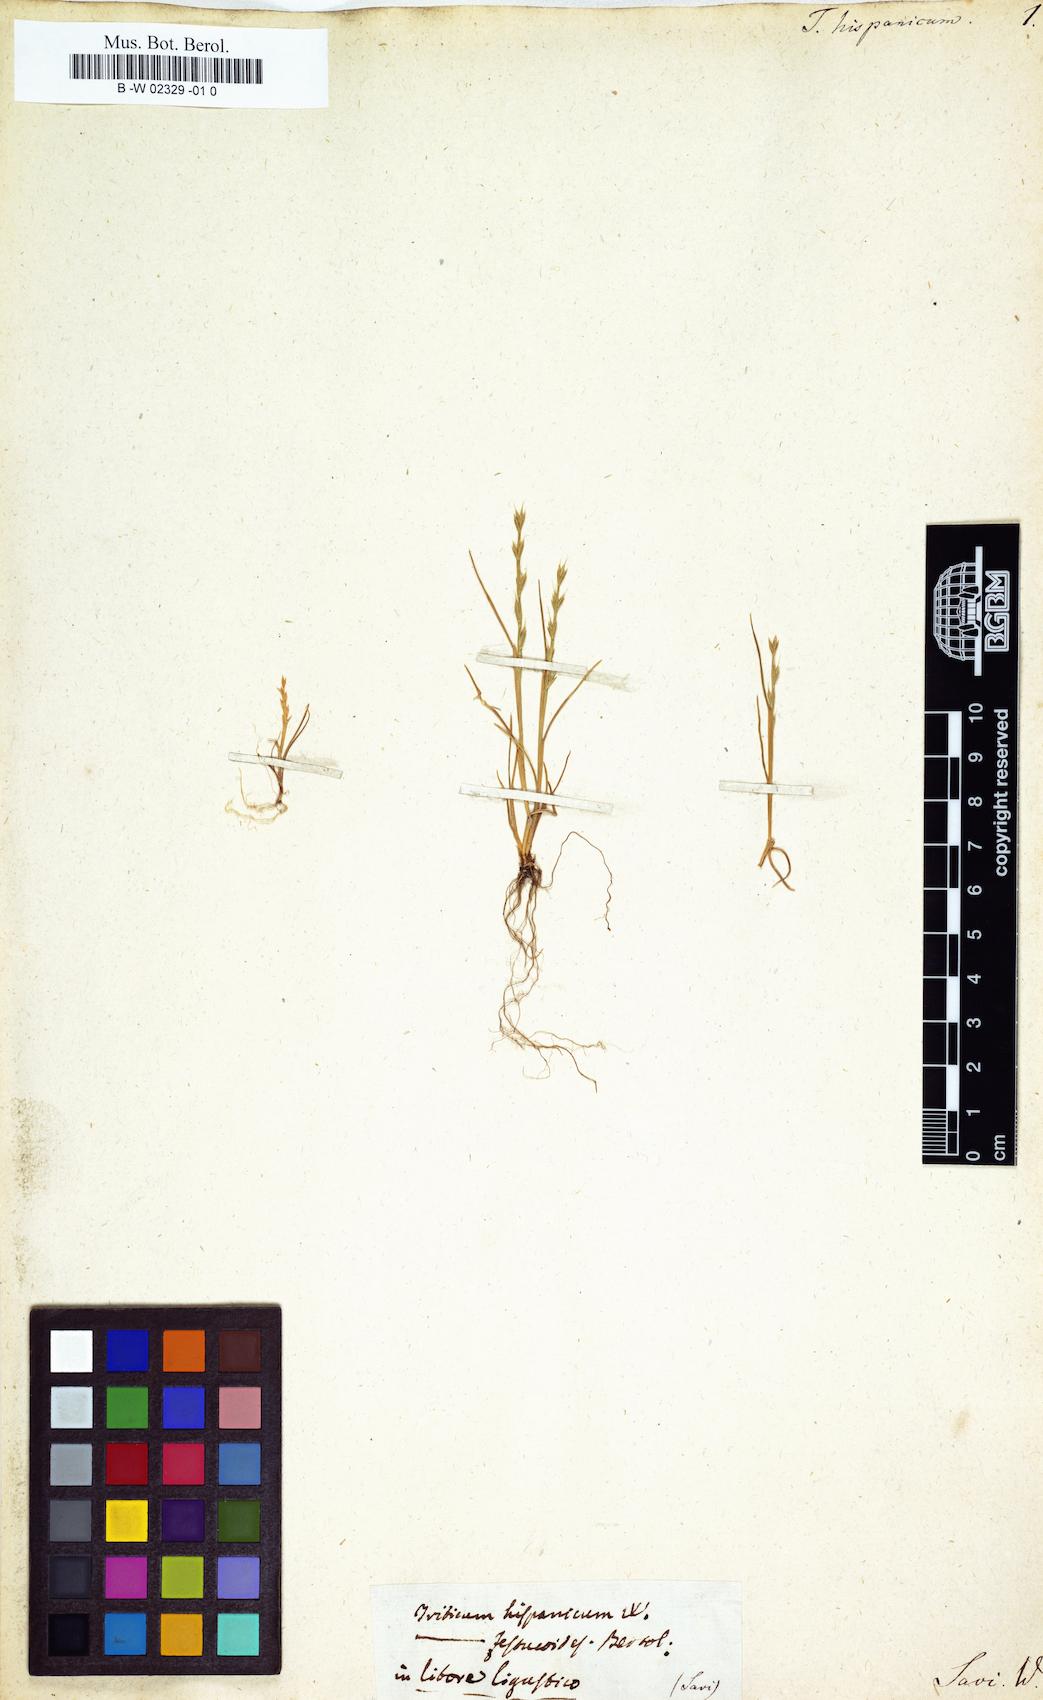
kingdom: Plantae
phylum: Tracheophyta
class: Liliopsida
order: Poales
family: Poaceae
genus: Festuca
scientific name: Festuca maritima
